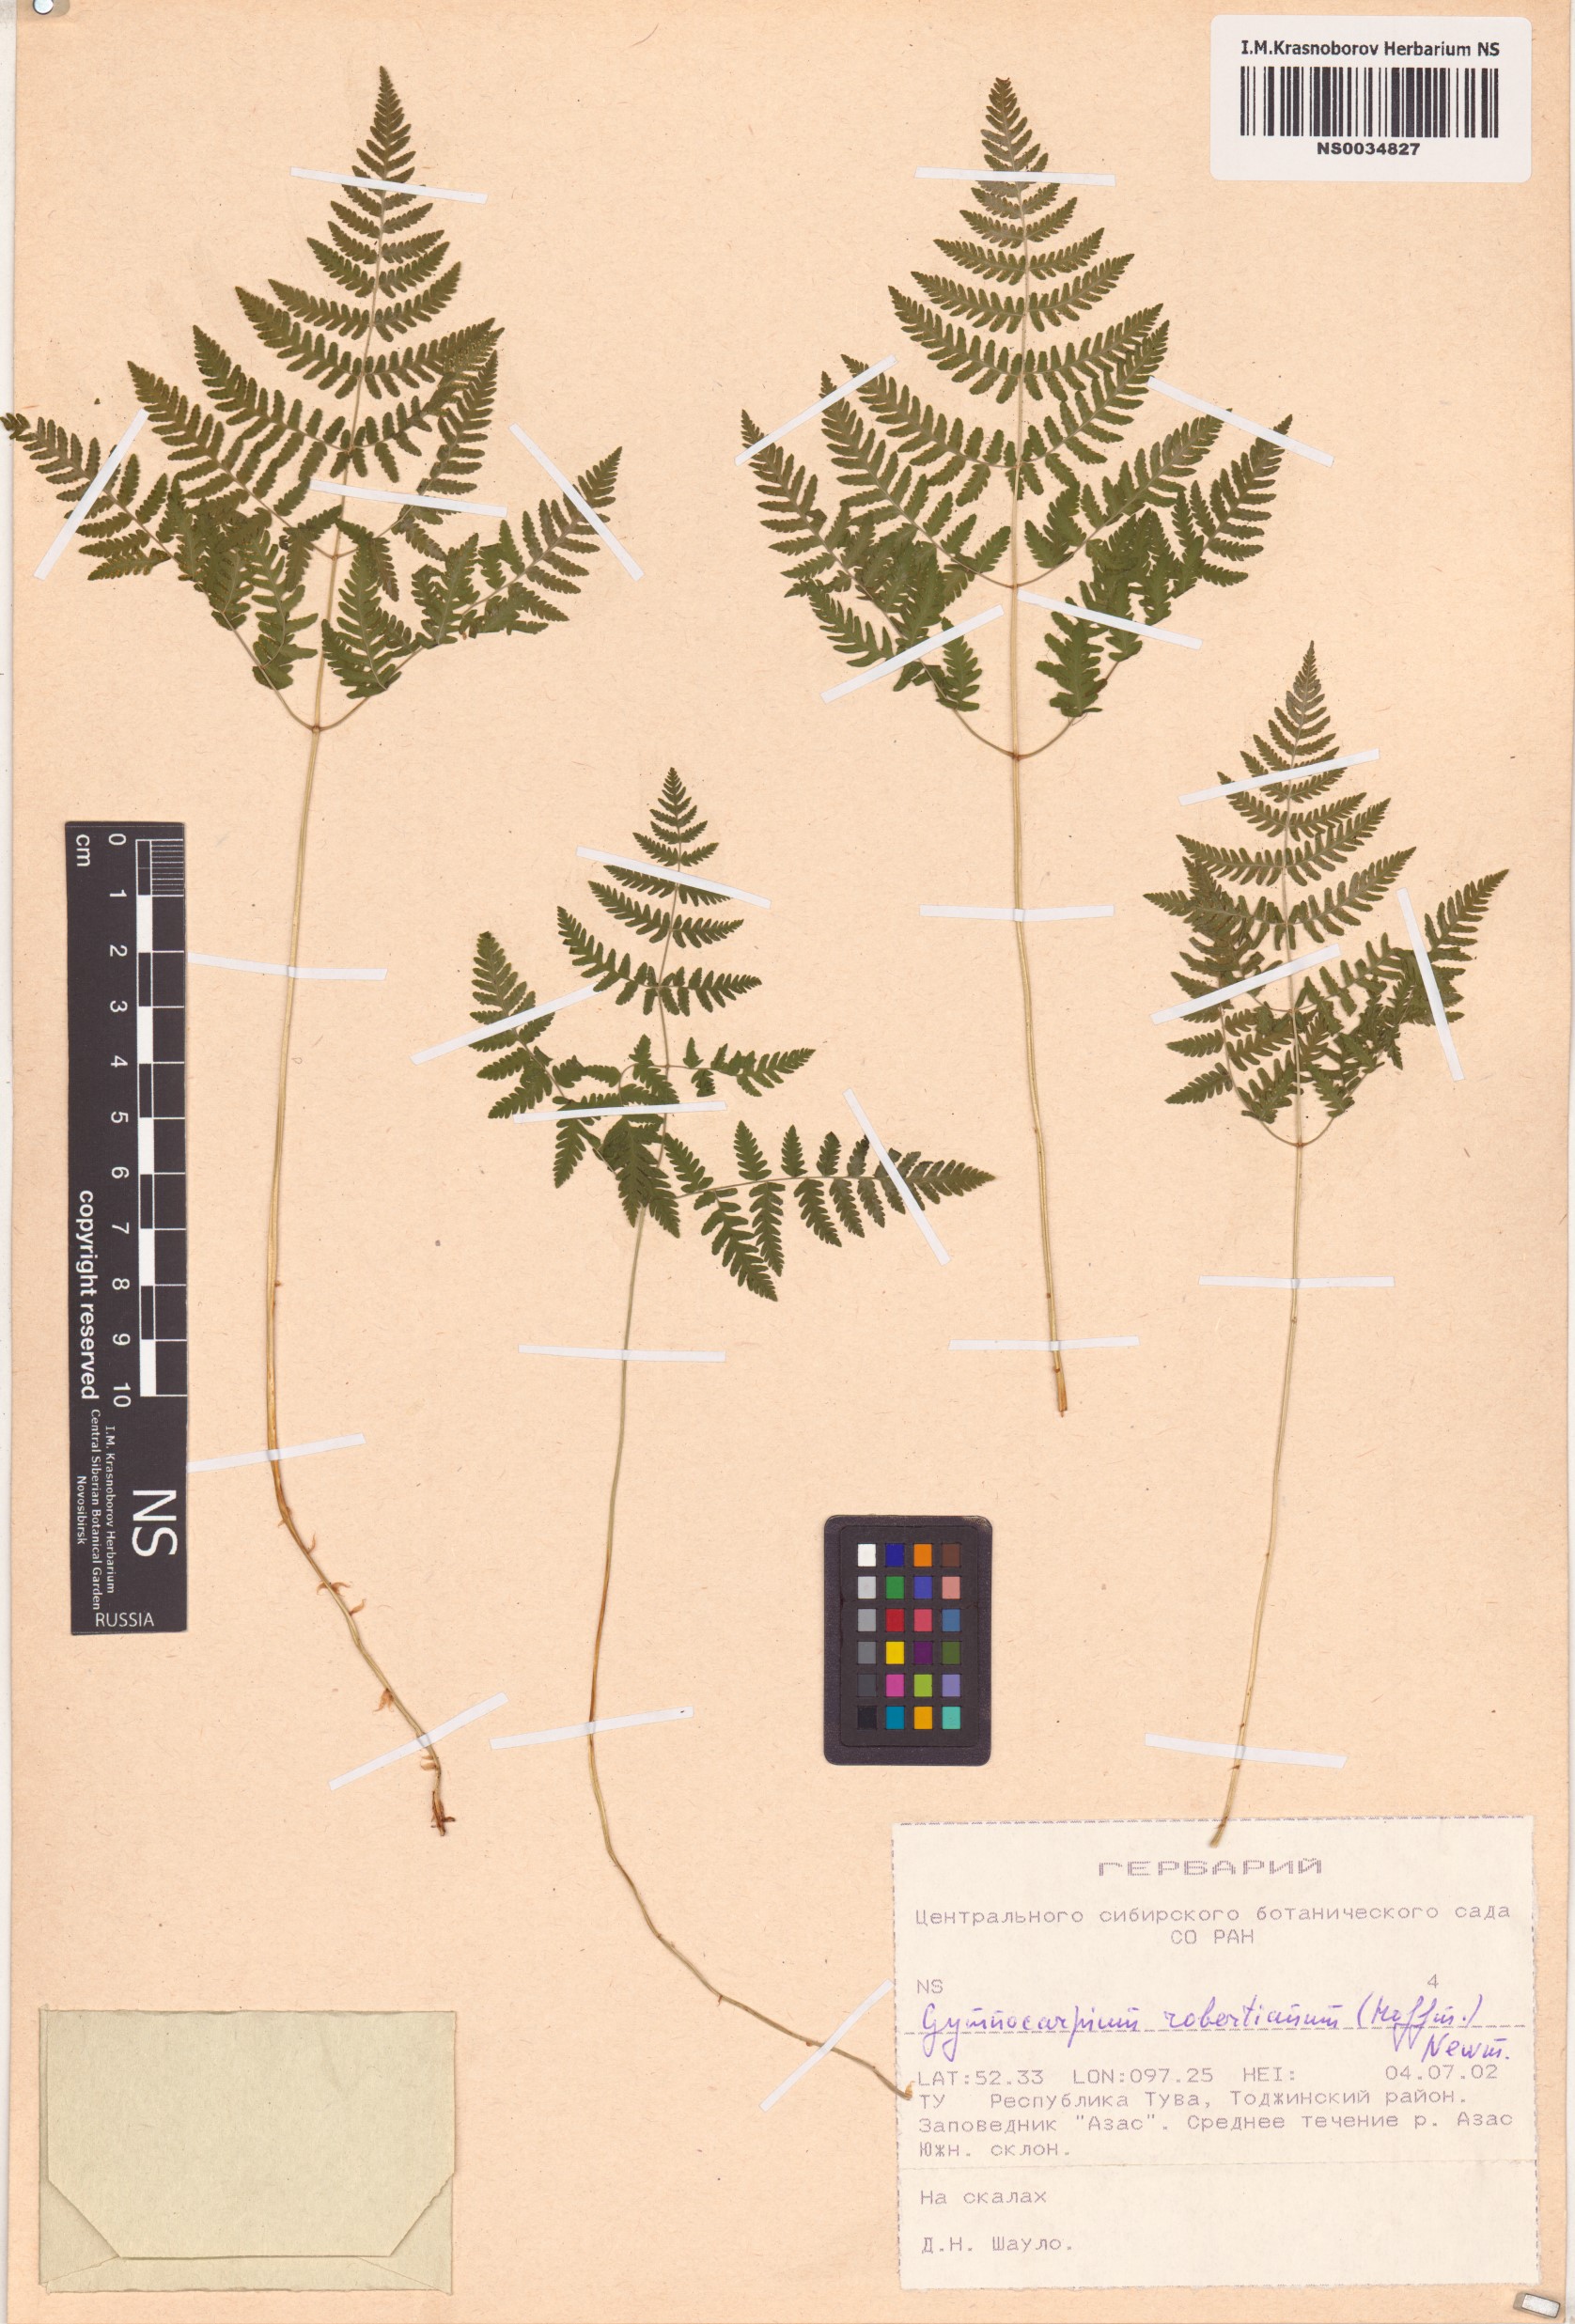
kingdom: Plantae
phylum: Tracheophyta
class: Polypodiopsida
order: Polypodiales
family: Cystopteridaceae
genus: Gymnocarpium
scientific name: Gymnocarpium robertianum
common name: Limestone fern
